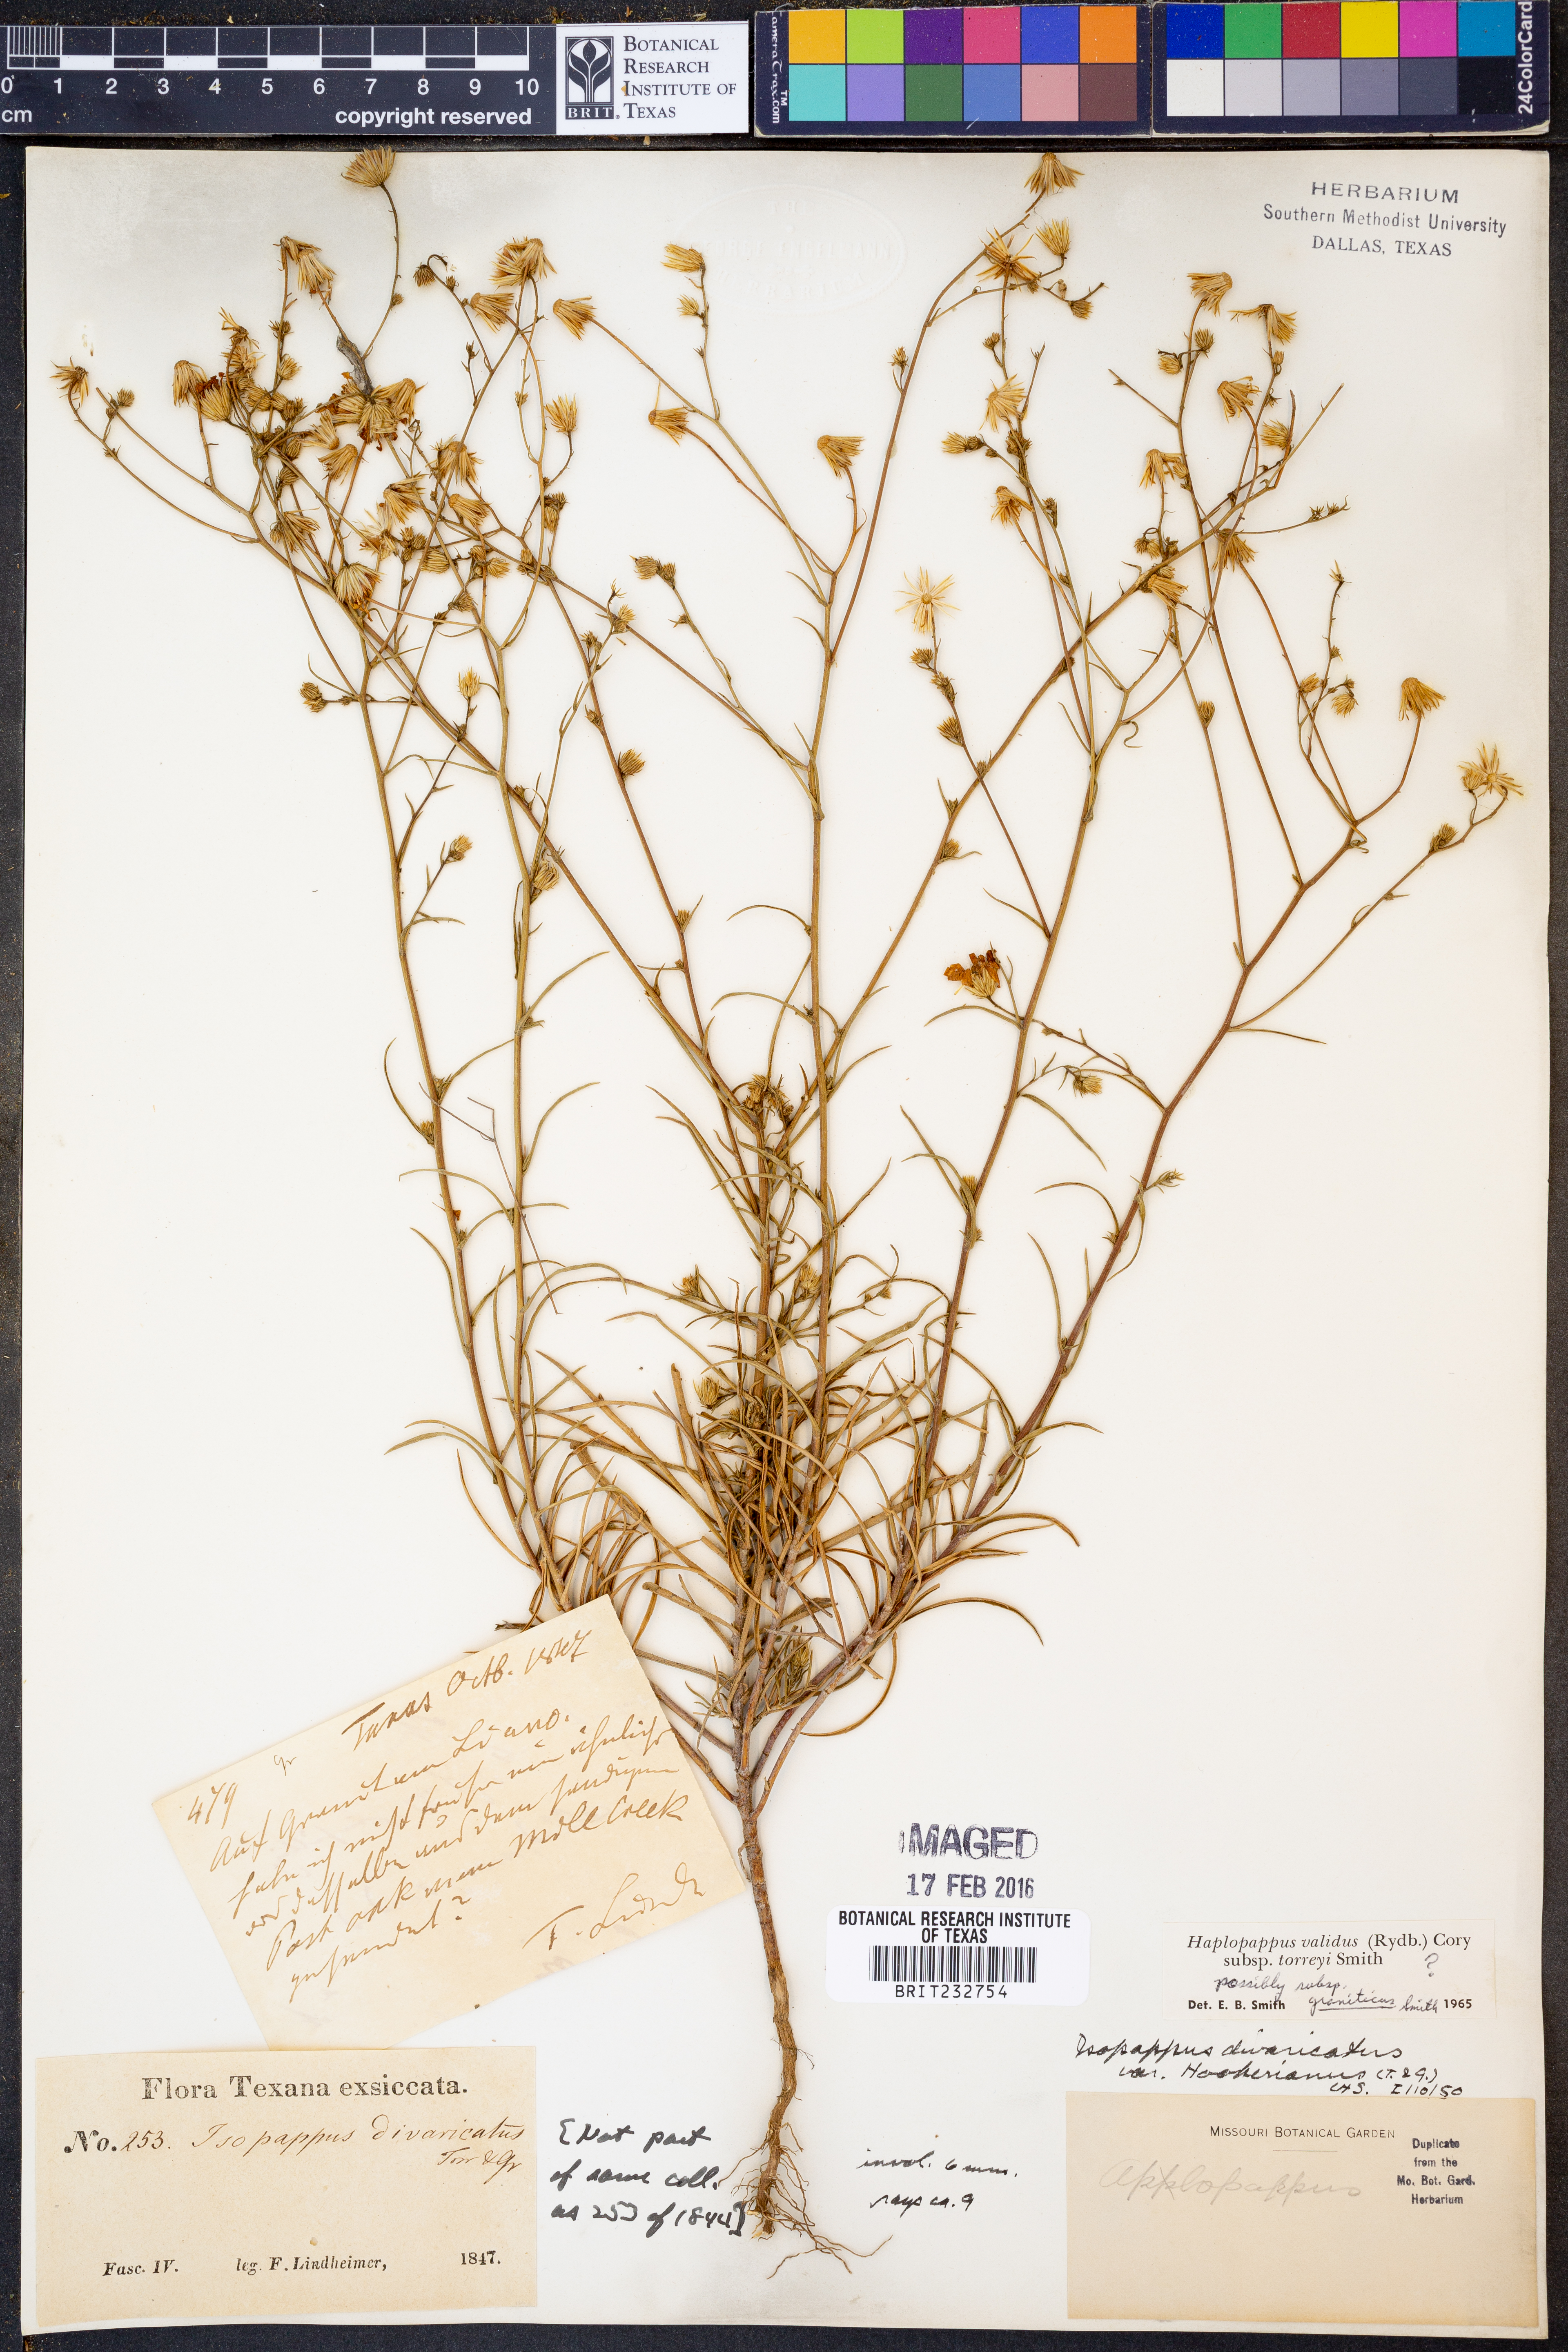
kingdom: Plantae
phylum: Tracheophyta
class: Magnoliopsida
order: Asterales
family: Asteraceae
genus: Croptilon
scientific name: Croptilon hookerianum
